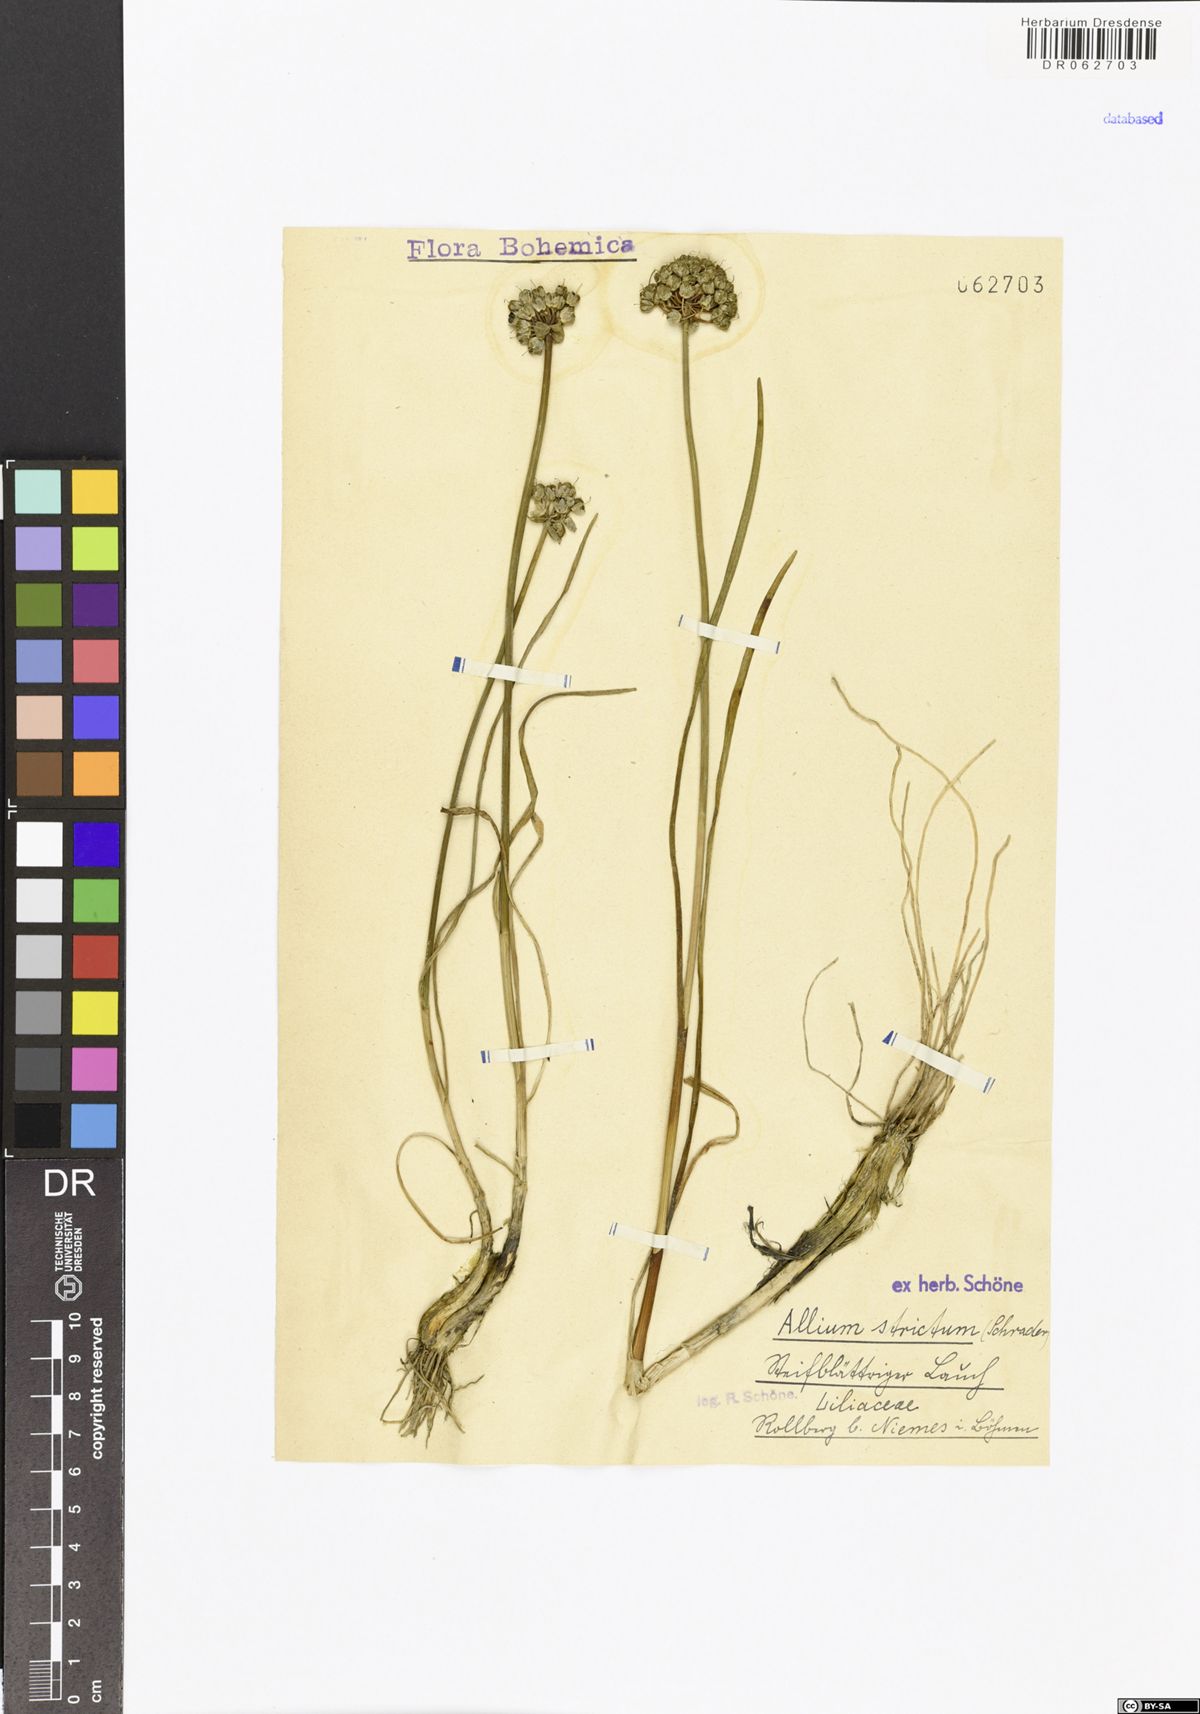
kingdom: Plantae
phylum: Tracheophyta
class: Liliopsida
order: Asparagales
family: Amaryllidaceae
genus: Allium
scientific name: Allium strictum
